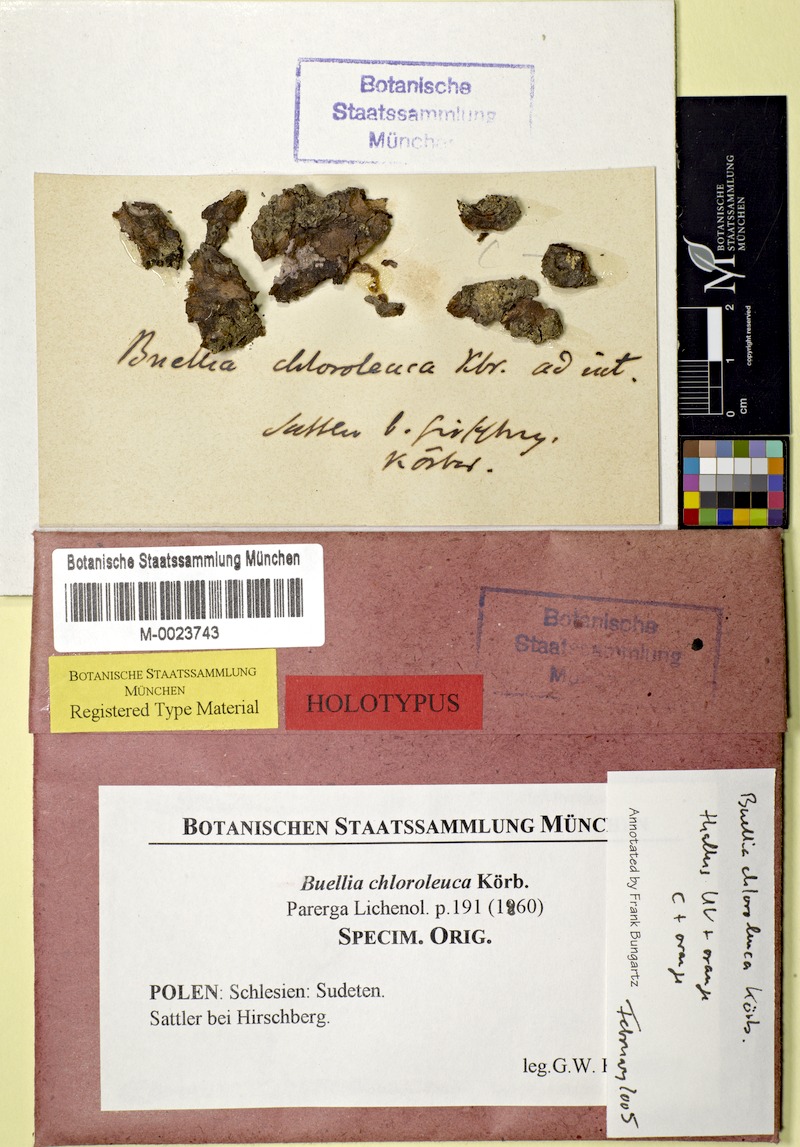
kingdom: Fungi
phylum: Ascomycota
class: Lecanoromycetes
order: Caliciales
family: Caliciaceae
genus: Tetramelas
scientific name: Tetramelas chloroleucus
